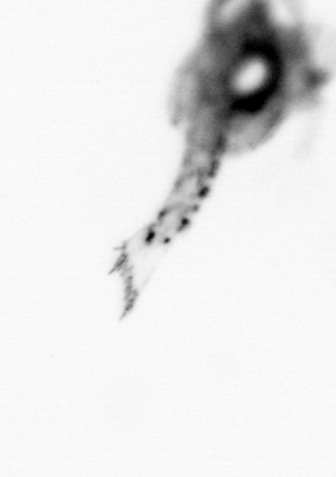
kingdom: Animalia
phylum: Arthropoda
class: Malacostraca
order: Decapoda
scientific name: Decapoda
